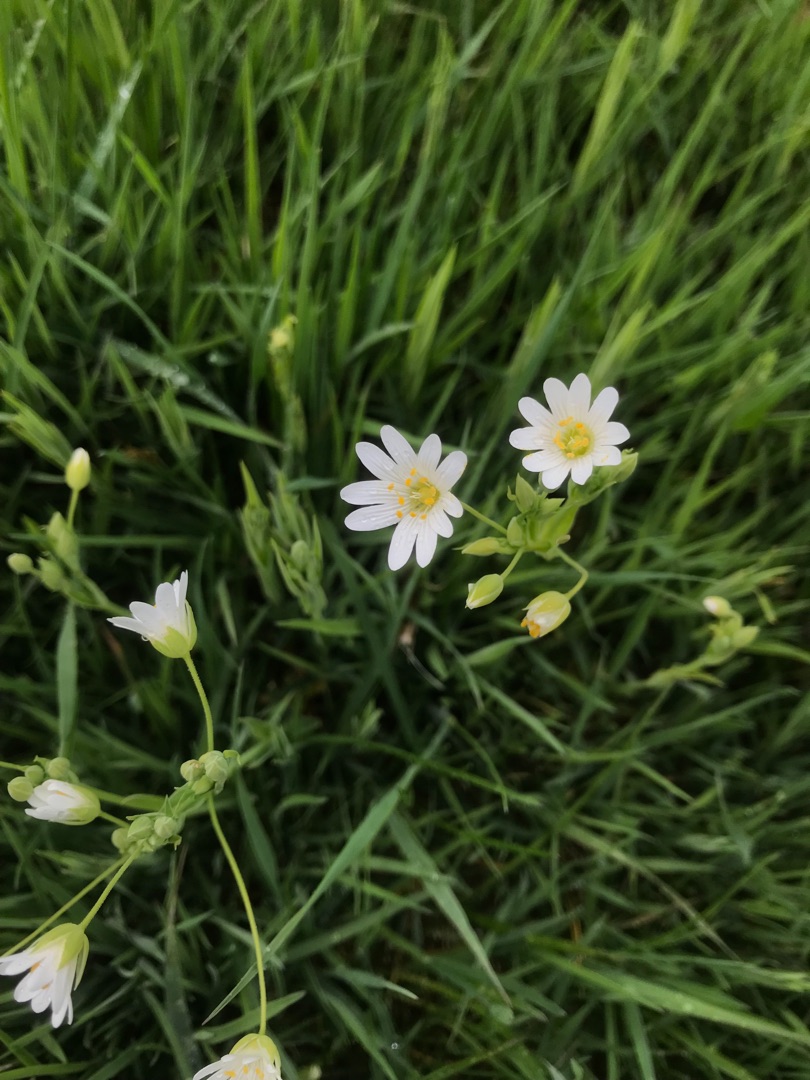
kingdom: Plantae
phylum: Tracheophyta
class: Magnoliopsida
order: Caryophyllales
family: Caryophyllaceae
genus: Rabelera
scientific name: Rabelera holostea
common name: Stor fladstjerne
